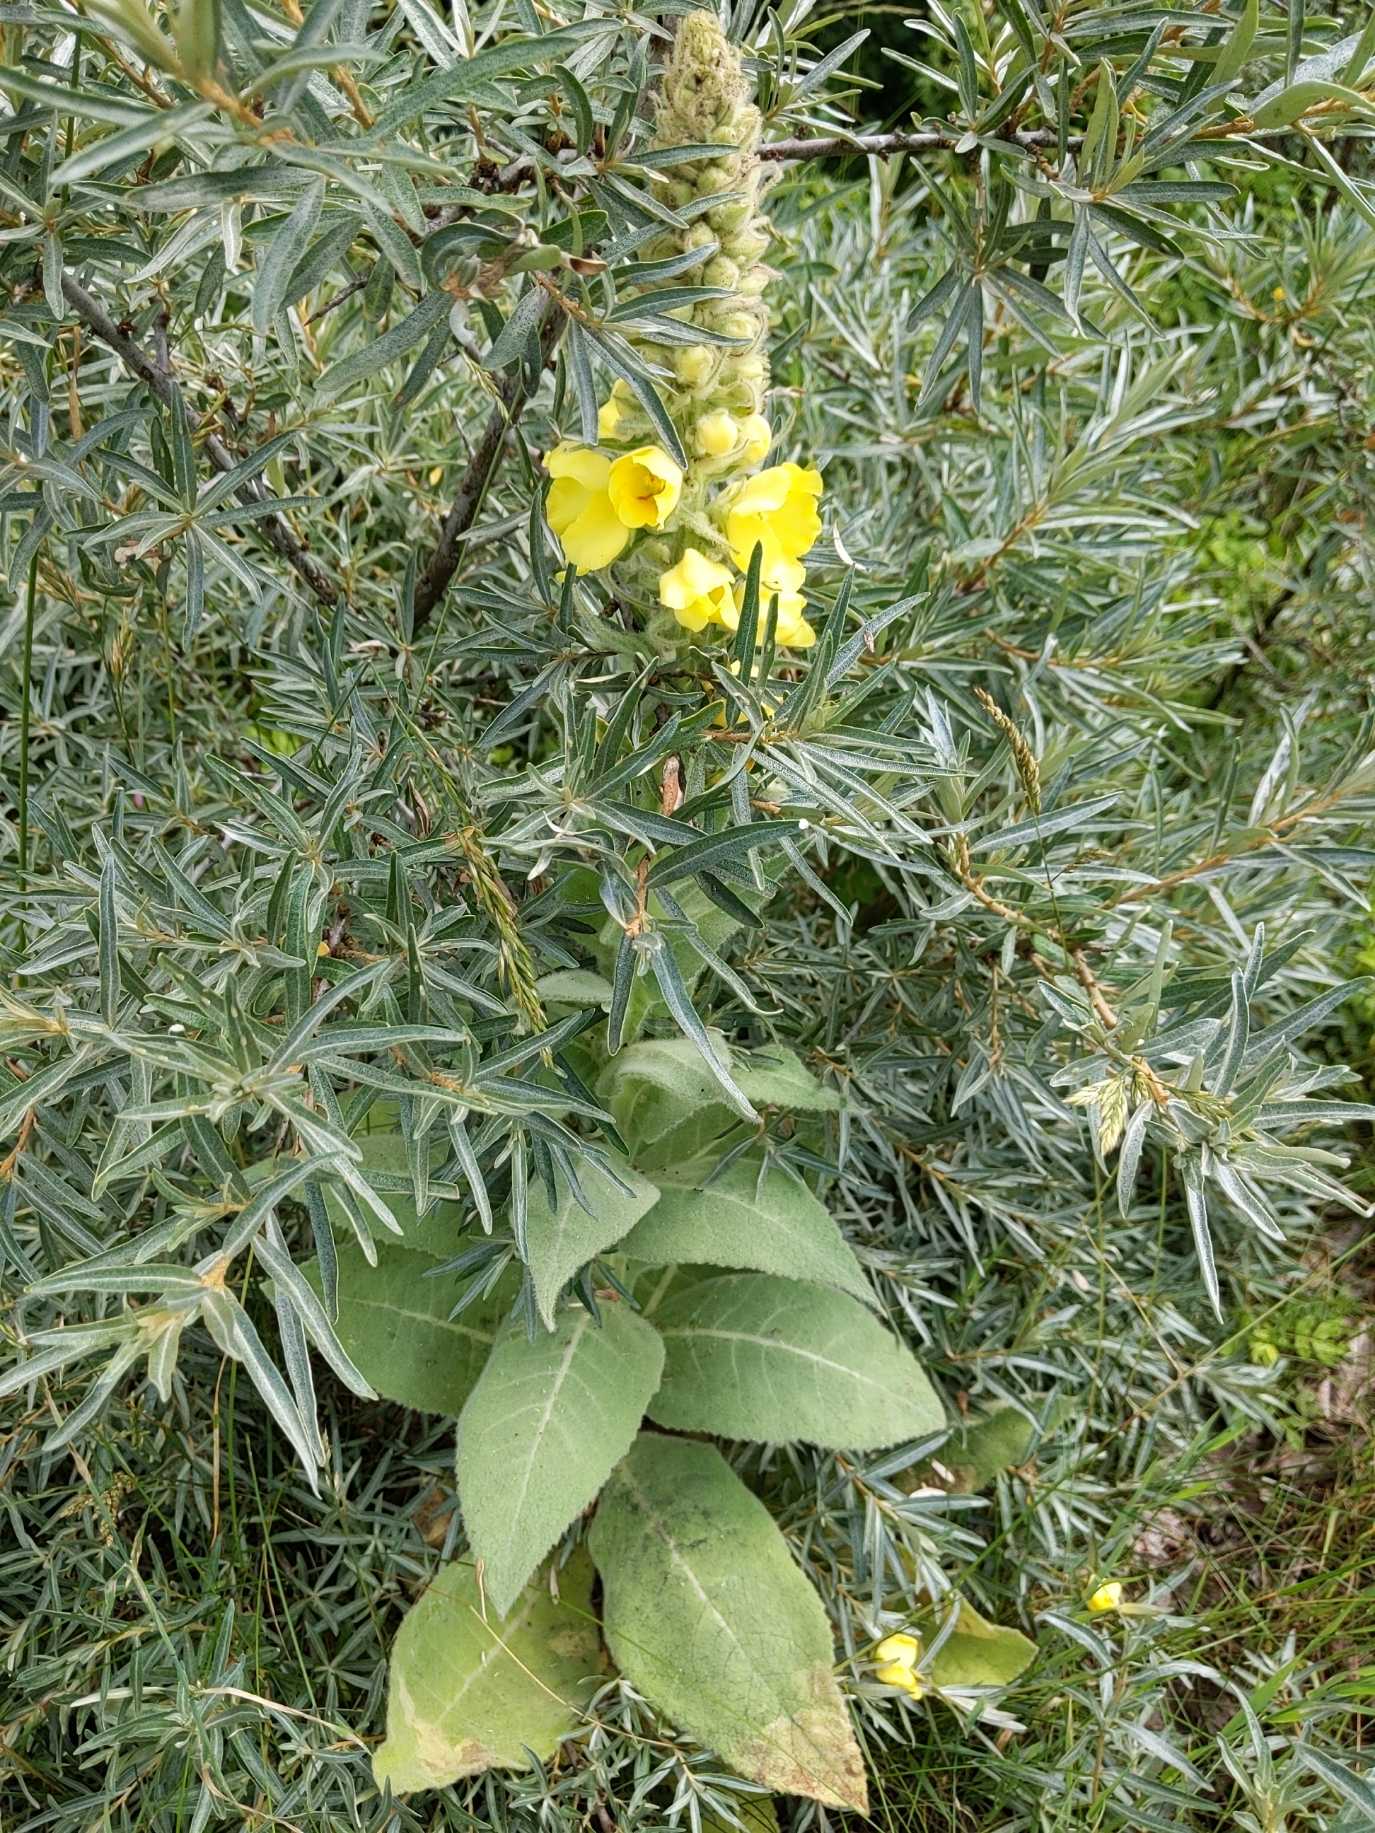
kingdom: Plantae
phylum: Tracheophyta
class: Magnoliopsida
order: Lamiales
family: Scrophulariaceae
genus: Verbascum
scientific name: Verbascum densiflorum
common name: Uldbladet kongelys
